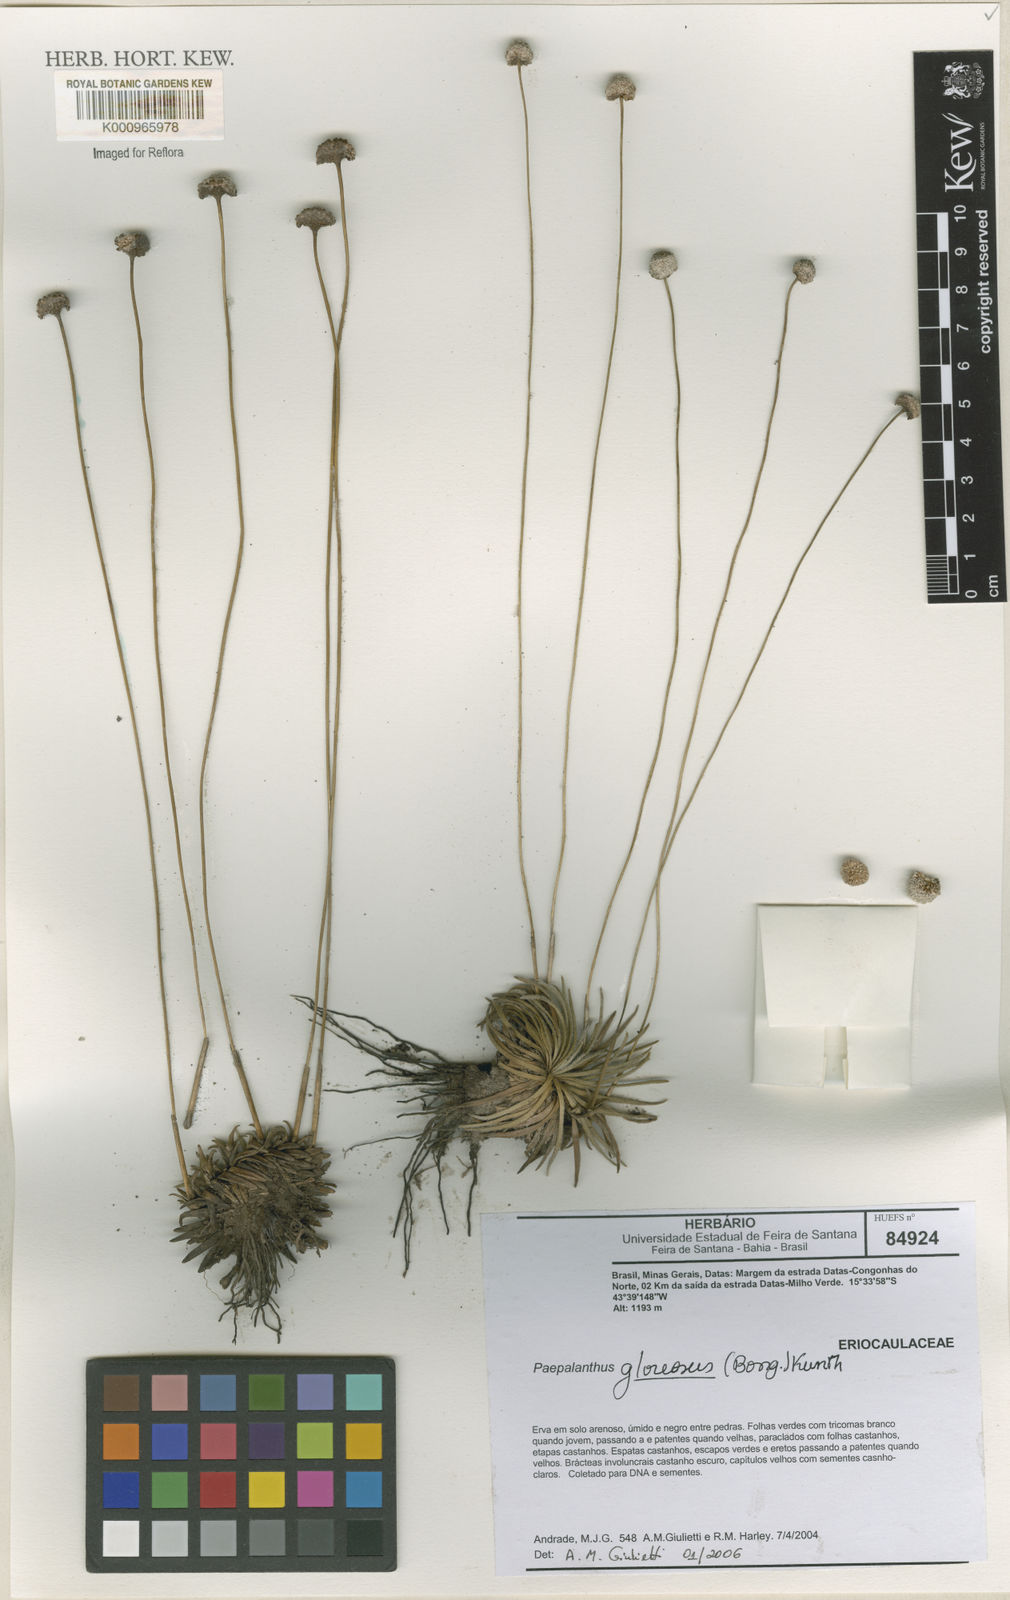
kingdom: Plantae
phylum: Tracheophyta
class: Liliopsida
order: Poales
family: Eriocaulaceae
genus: Paepalanthus
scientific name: Paepalanthus glareosus
